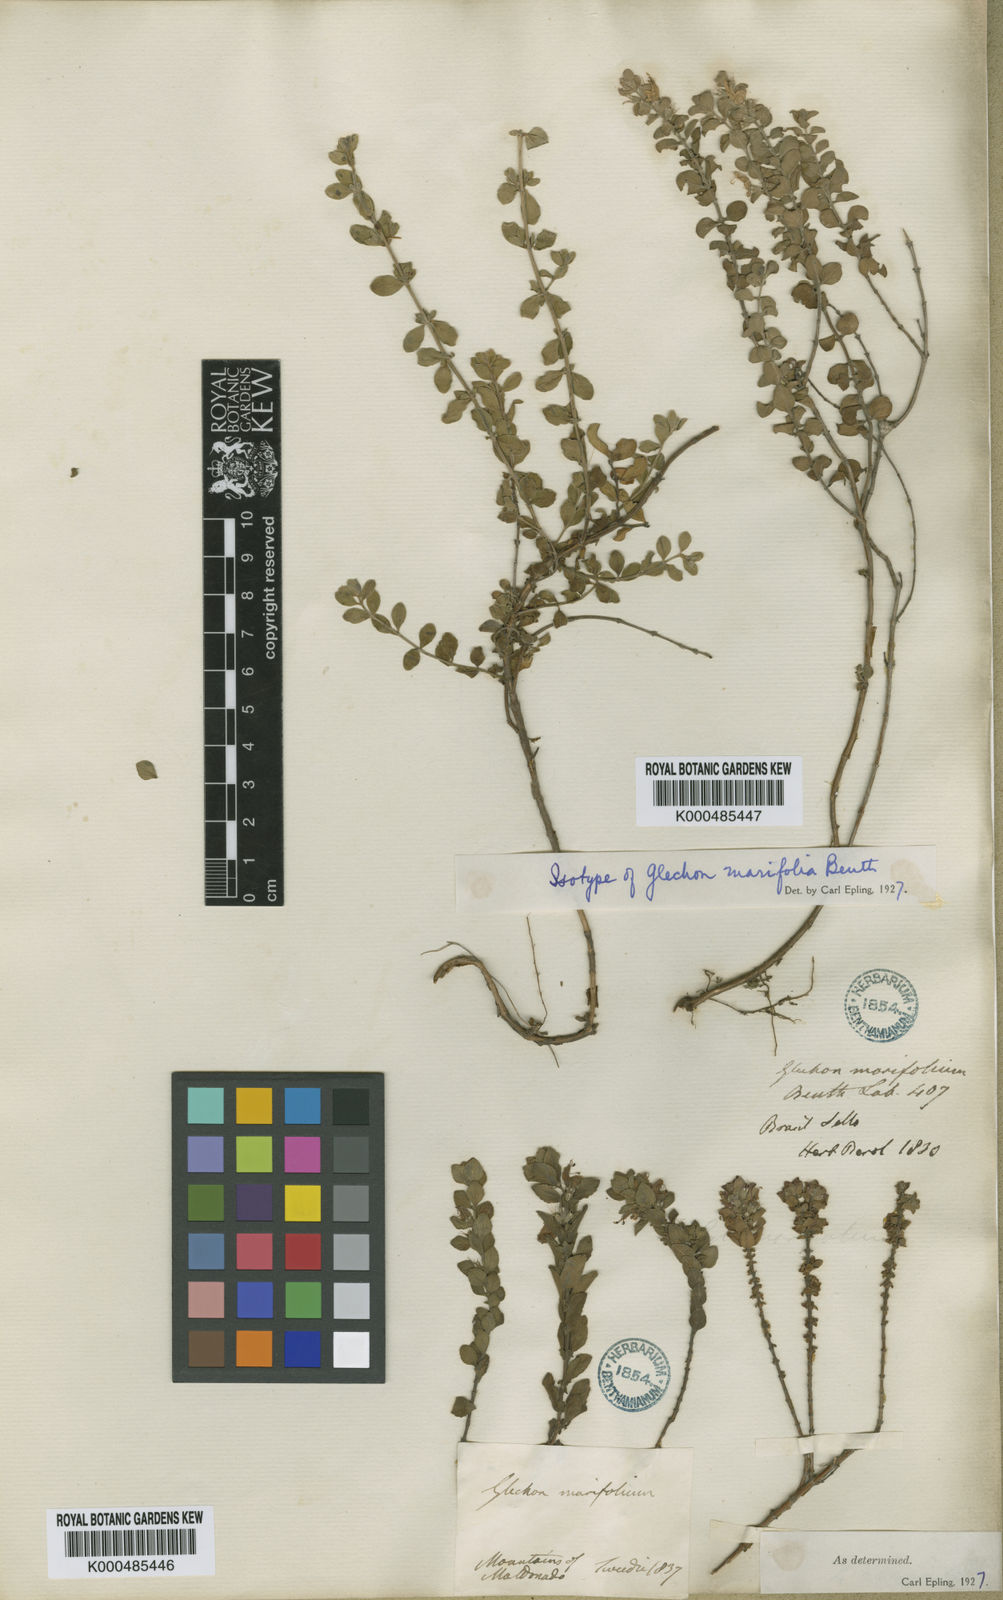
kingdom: Plantae
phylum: Tracheophyta
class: Magnoliopsida
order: Lamiales
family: Lamiaceae
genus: Glechon
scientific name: Glechon marifolia
